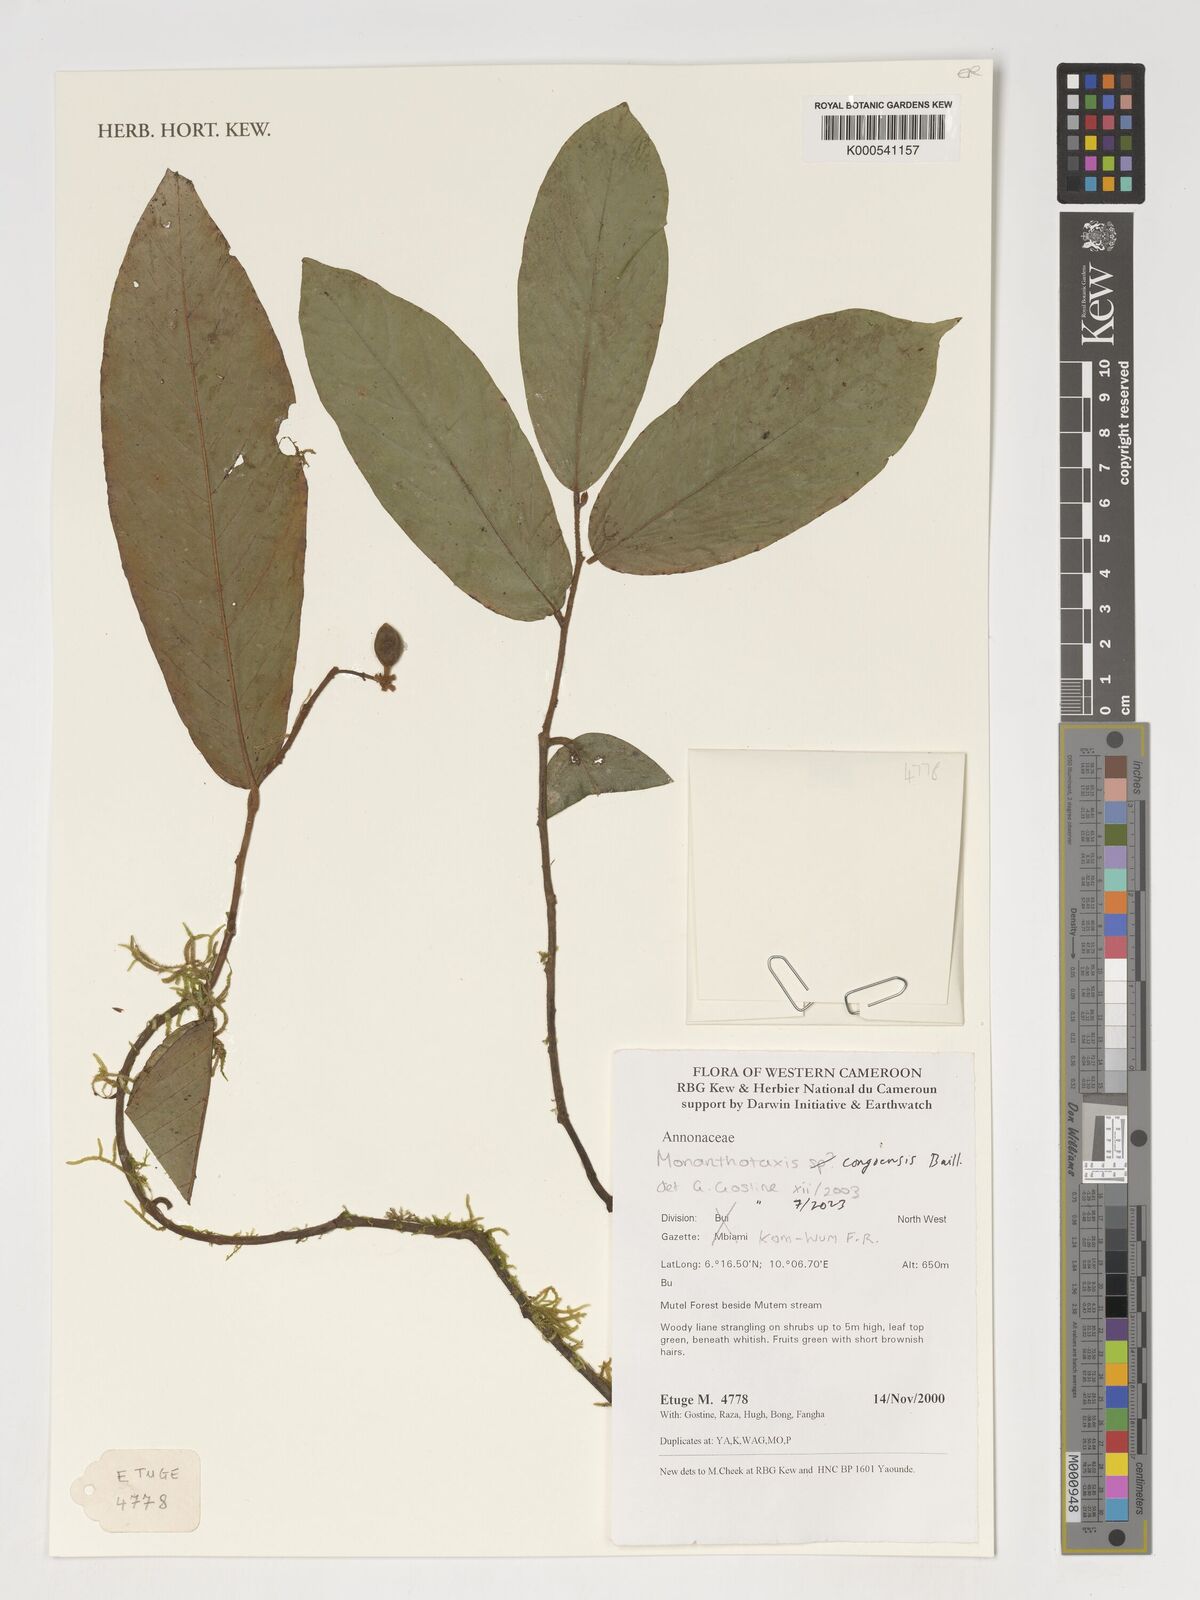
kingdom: Plantae
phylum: Tracheophyta
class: Magnoliopsida
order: Magnoliales
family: Annonaceae
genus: Monanthotaxis
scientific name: Monanthotaxis
